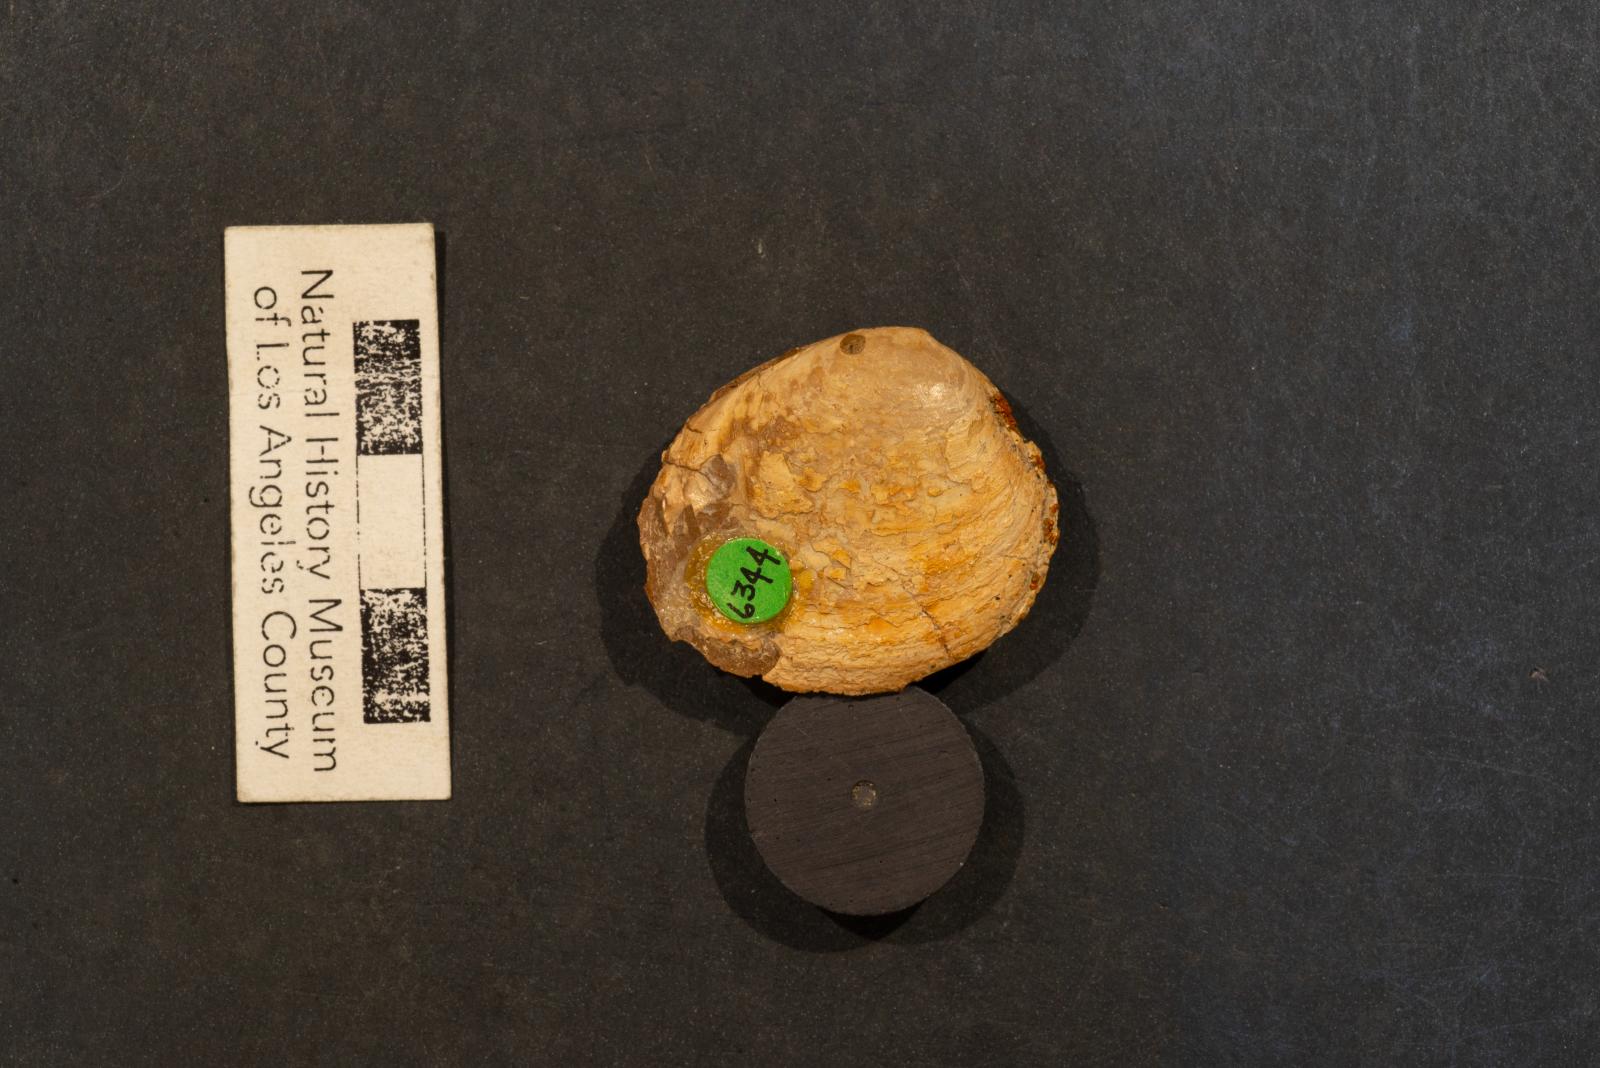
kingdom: Animalia
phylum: Mollusca
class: Bivalvia
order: Venerida
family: Veneridae
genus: Paraesa
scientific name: Paraesa Meretrix lens
